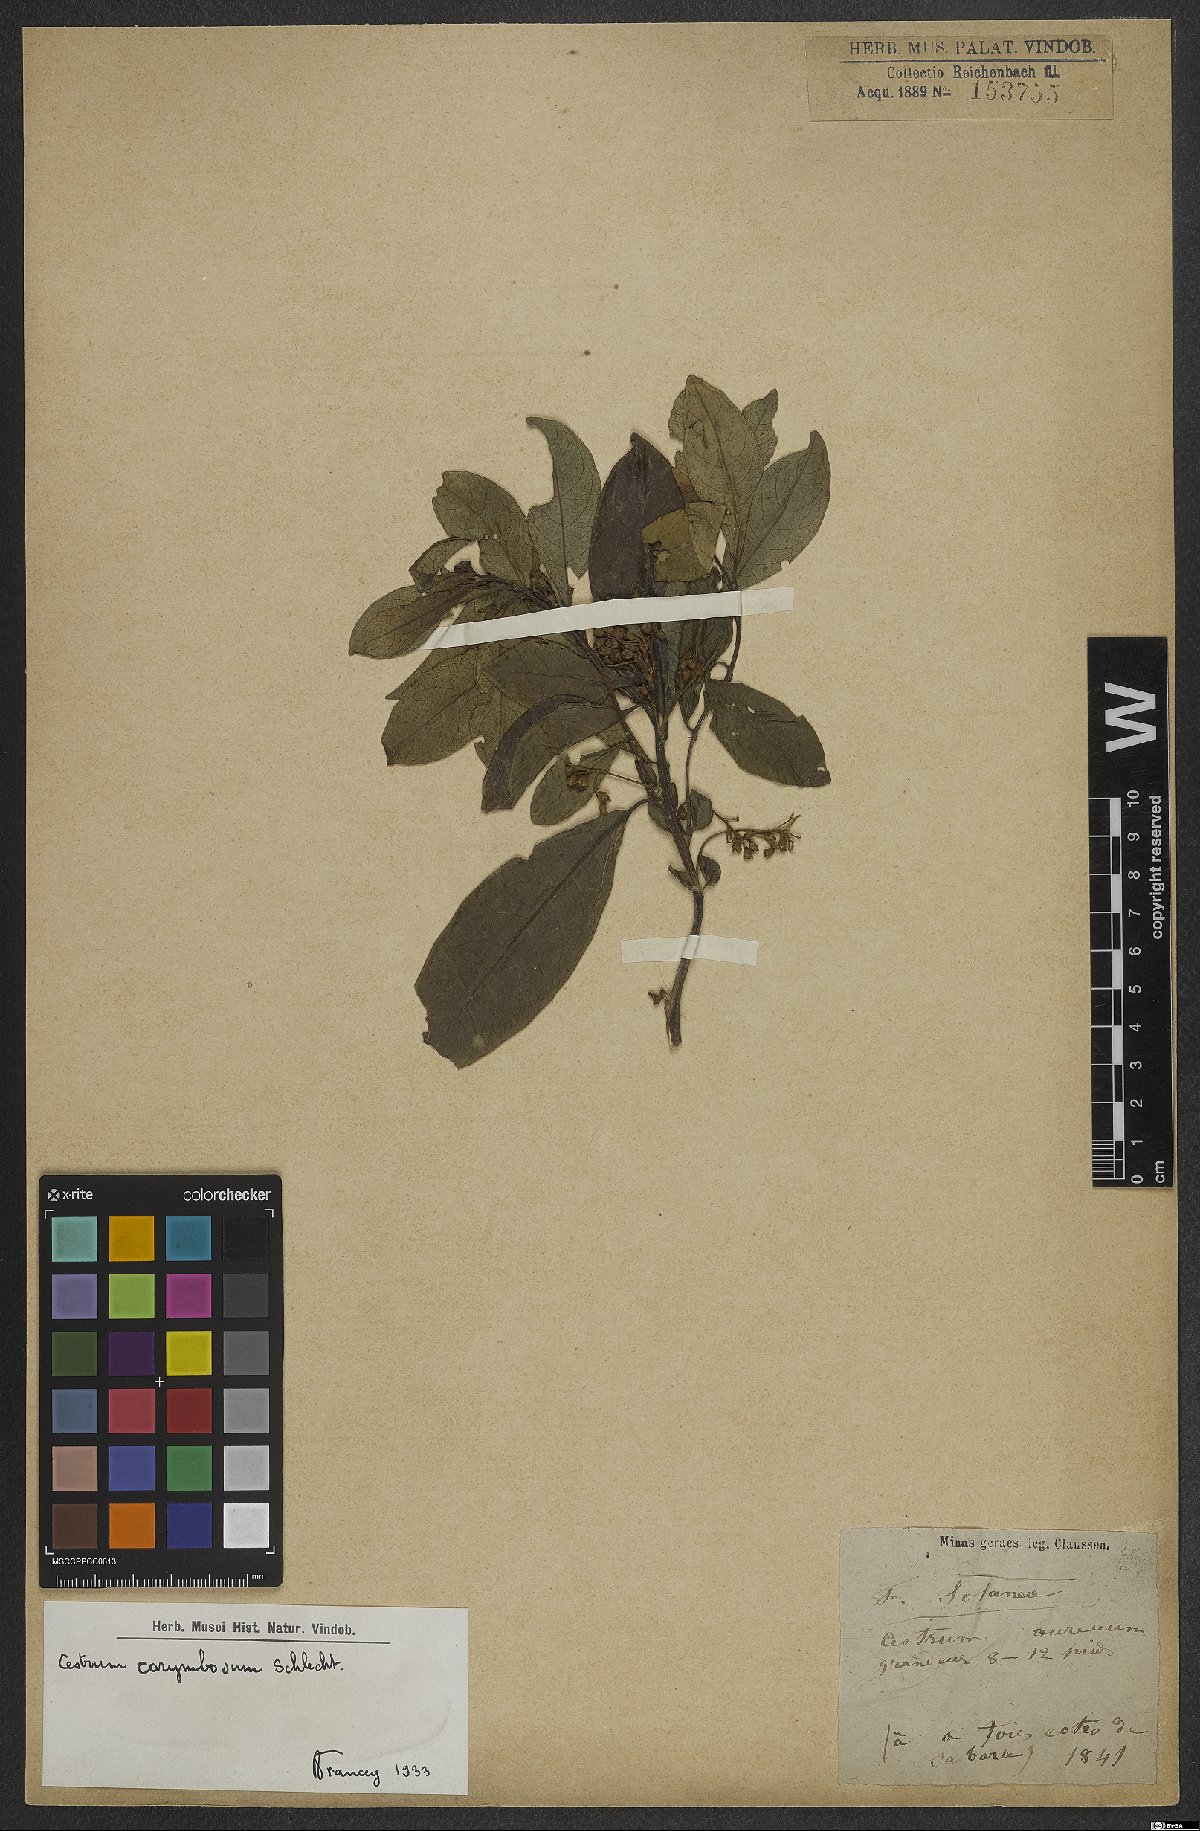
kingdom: Plantae
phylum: Tracheophyta
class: Magnoliopsida
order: Solanales
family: Solanaceae
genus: Cestrum
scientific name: Cestrum corymbosum
